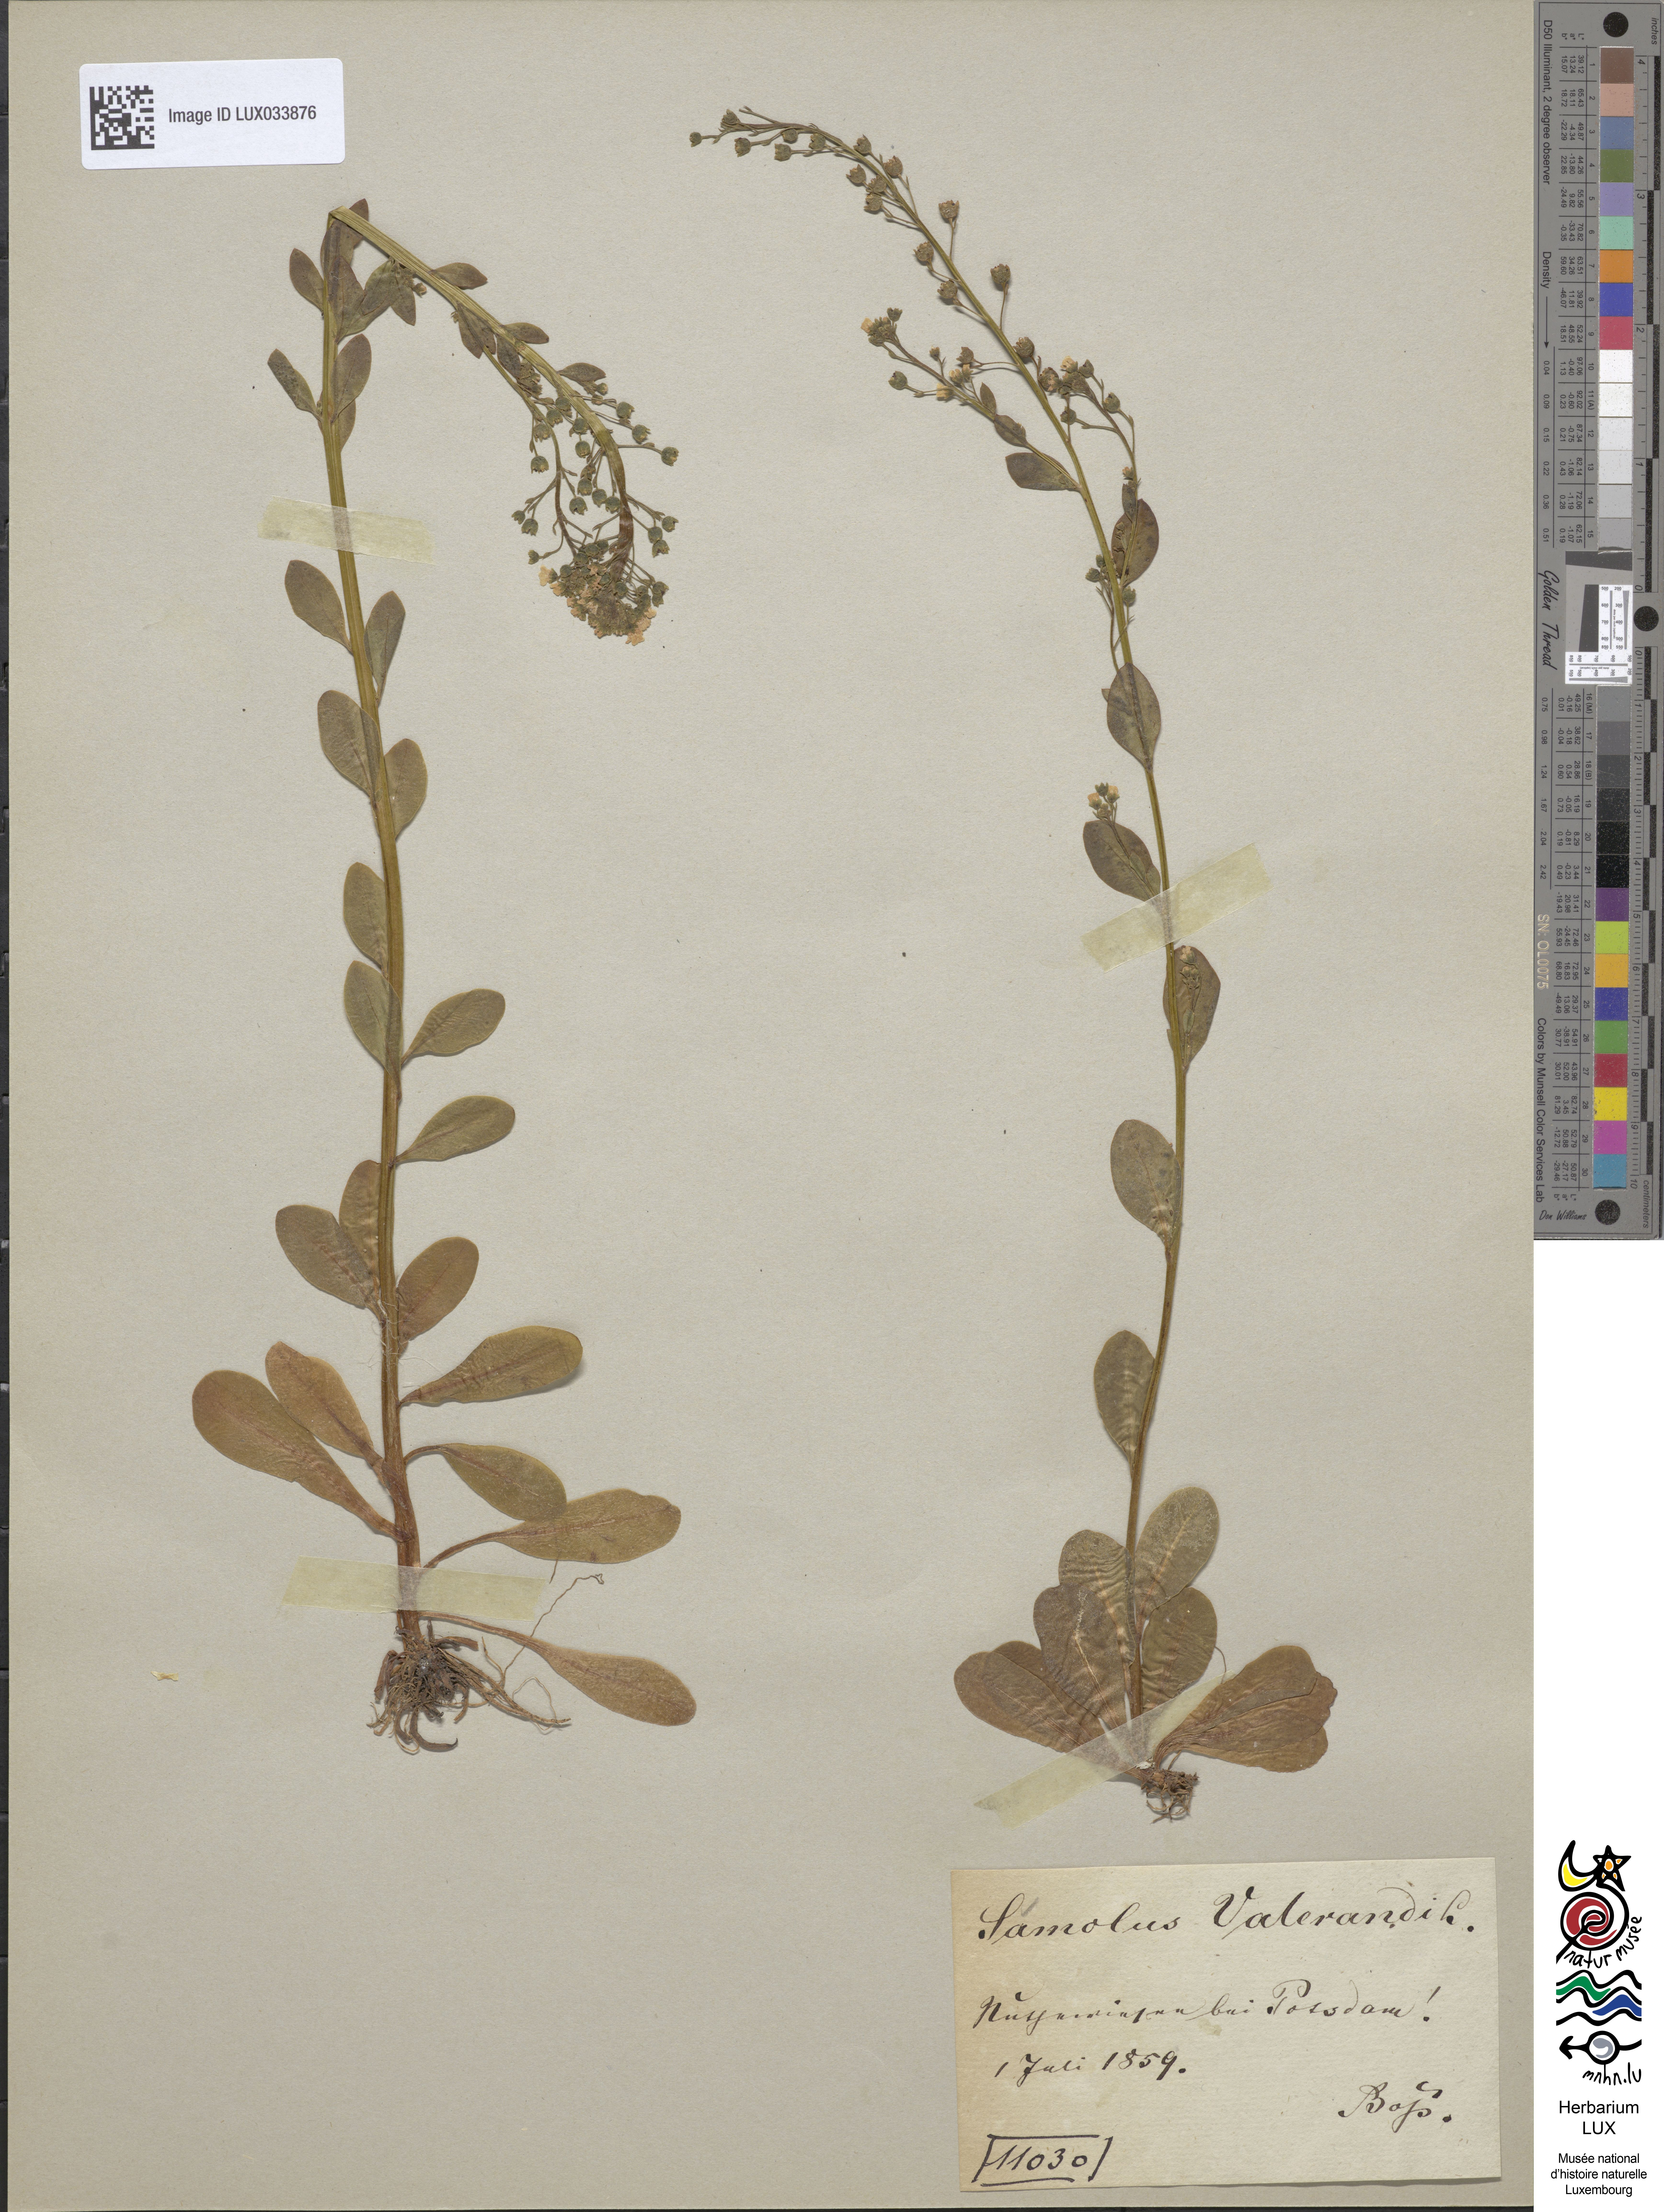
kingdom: Plantae
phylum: Tracheophyta
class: Magnoliopsida
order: Ericales
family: Primulaceae
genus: Samolus
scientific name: Samolus valerandi
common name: Brookweed
